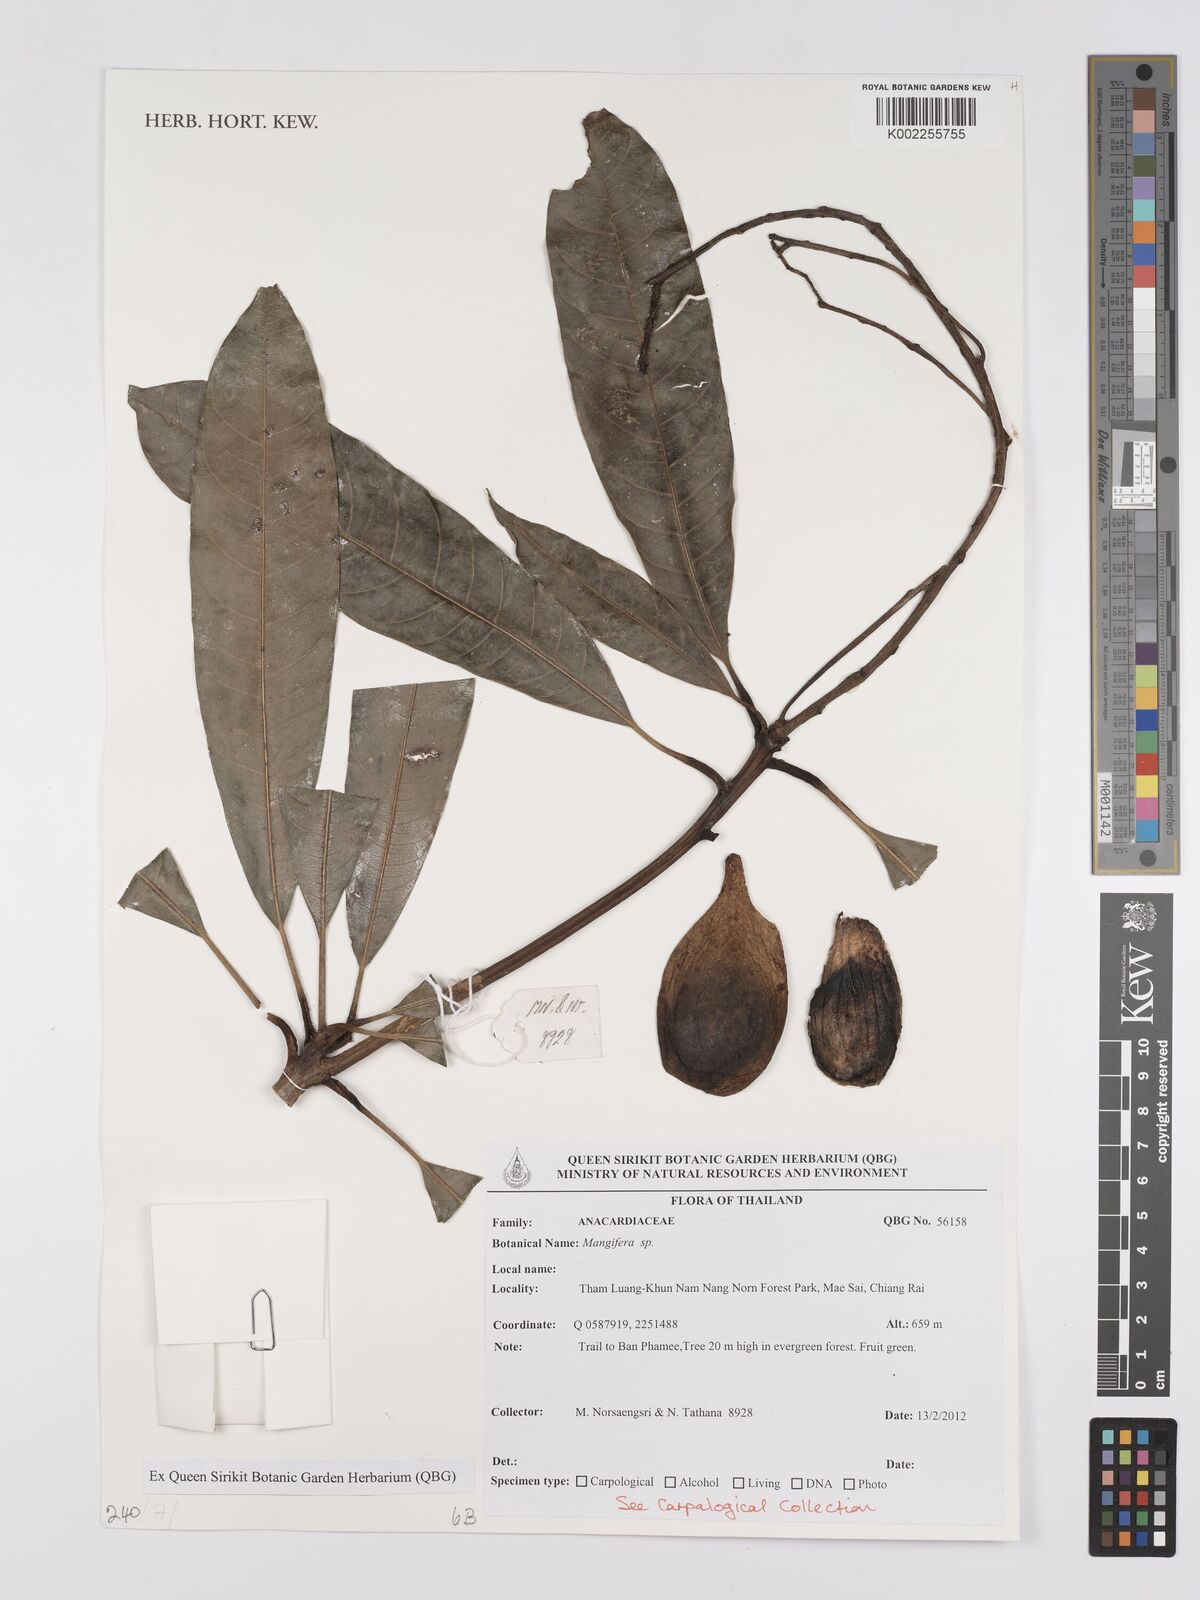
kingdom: Plantae
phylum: Tracheophyta
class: Magnoliopsida
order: Sapindales
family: Anacardiaceae
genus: Mangifera
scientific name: Mangifera
